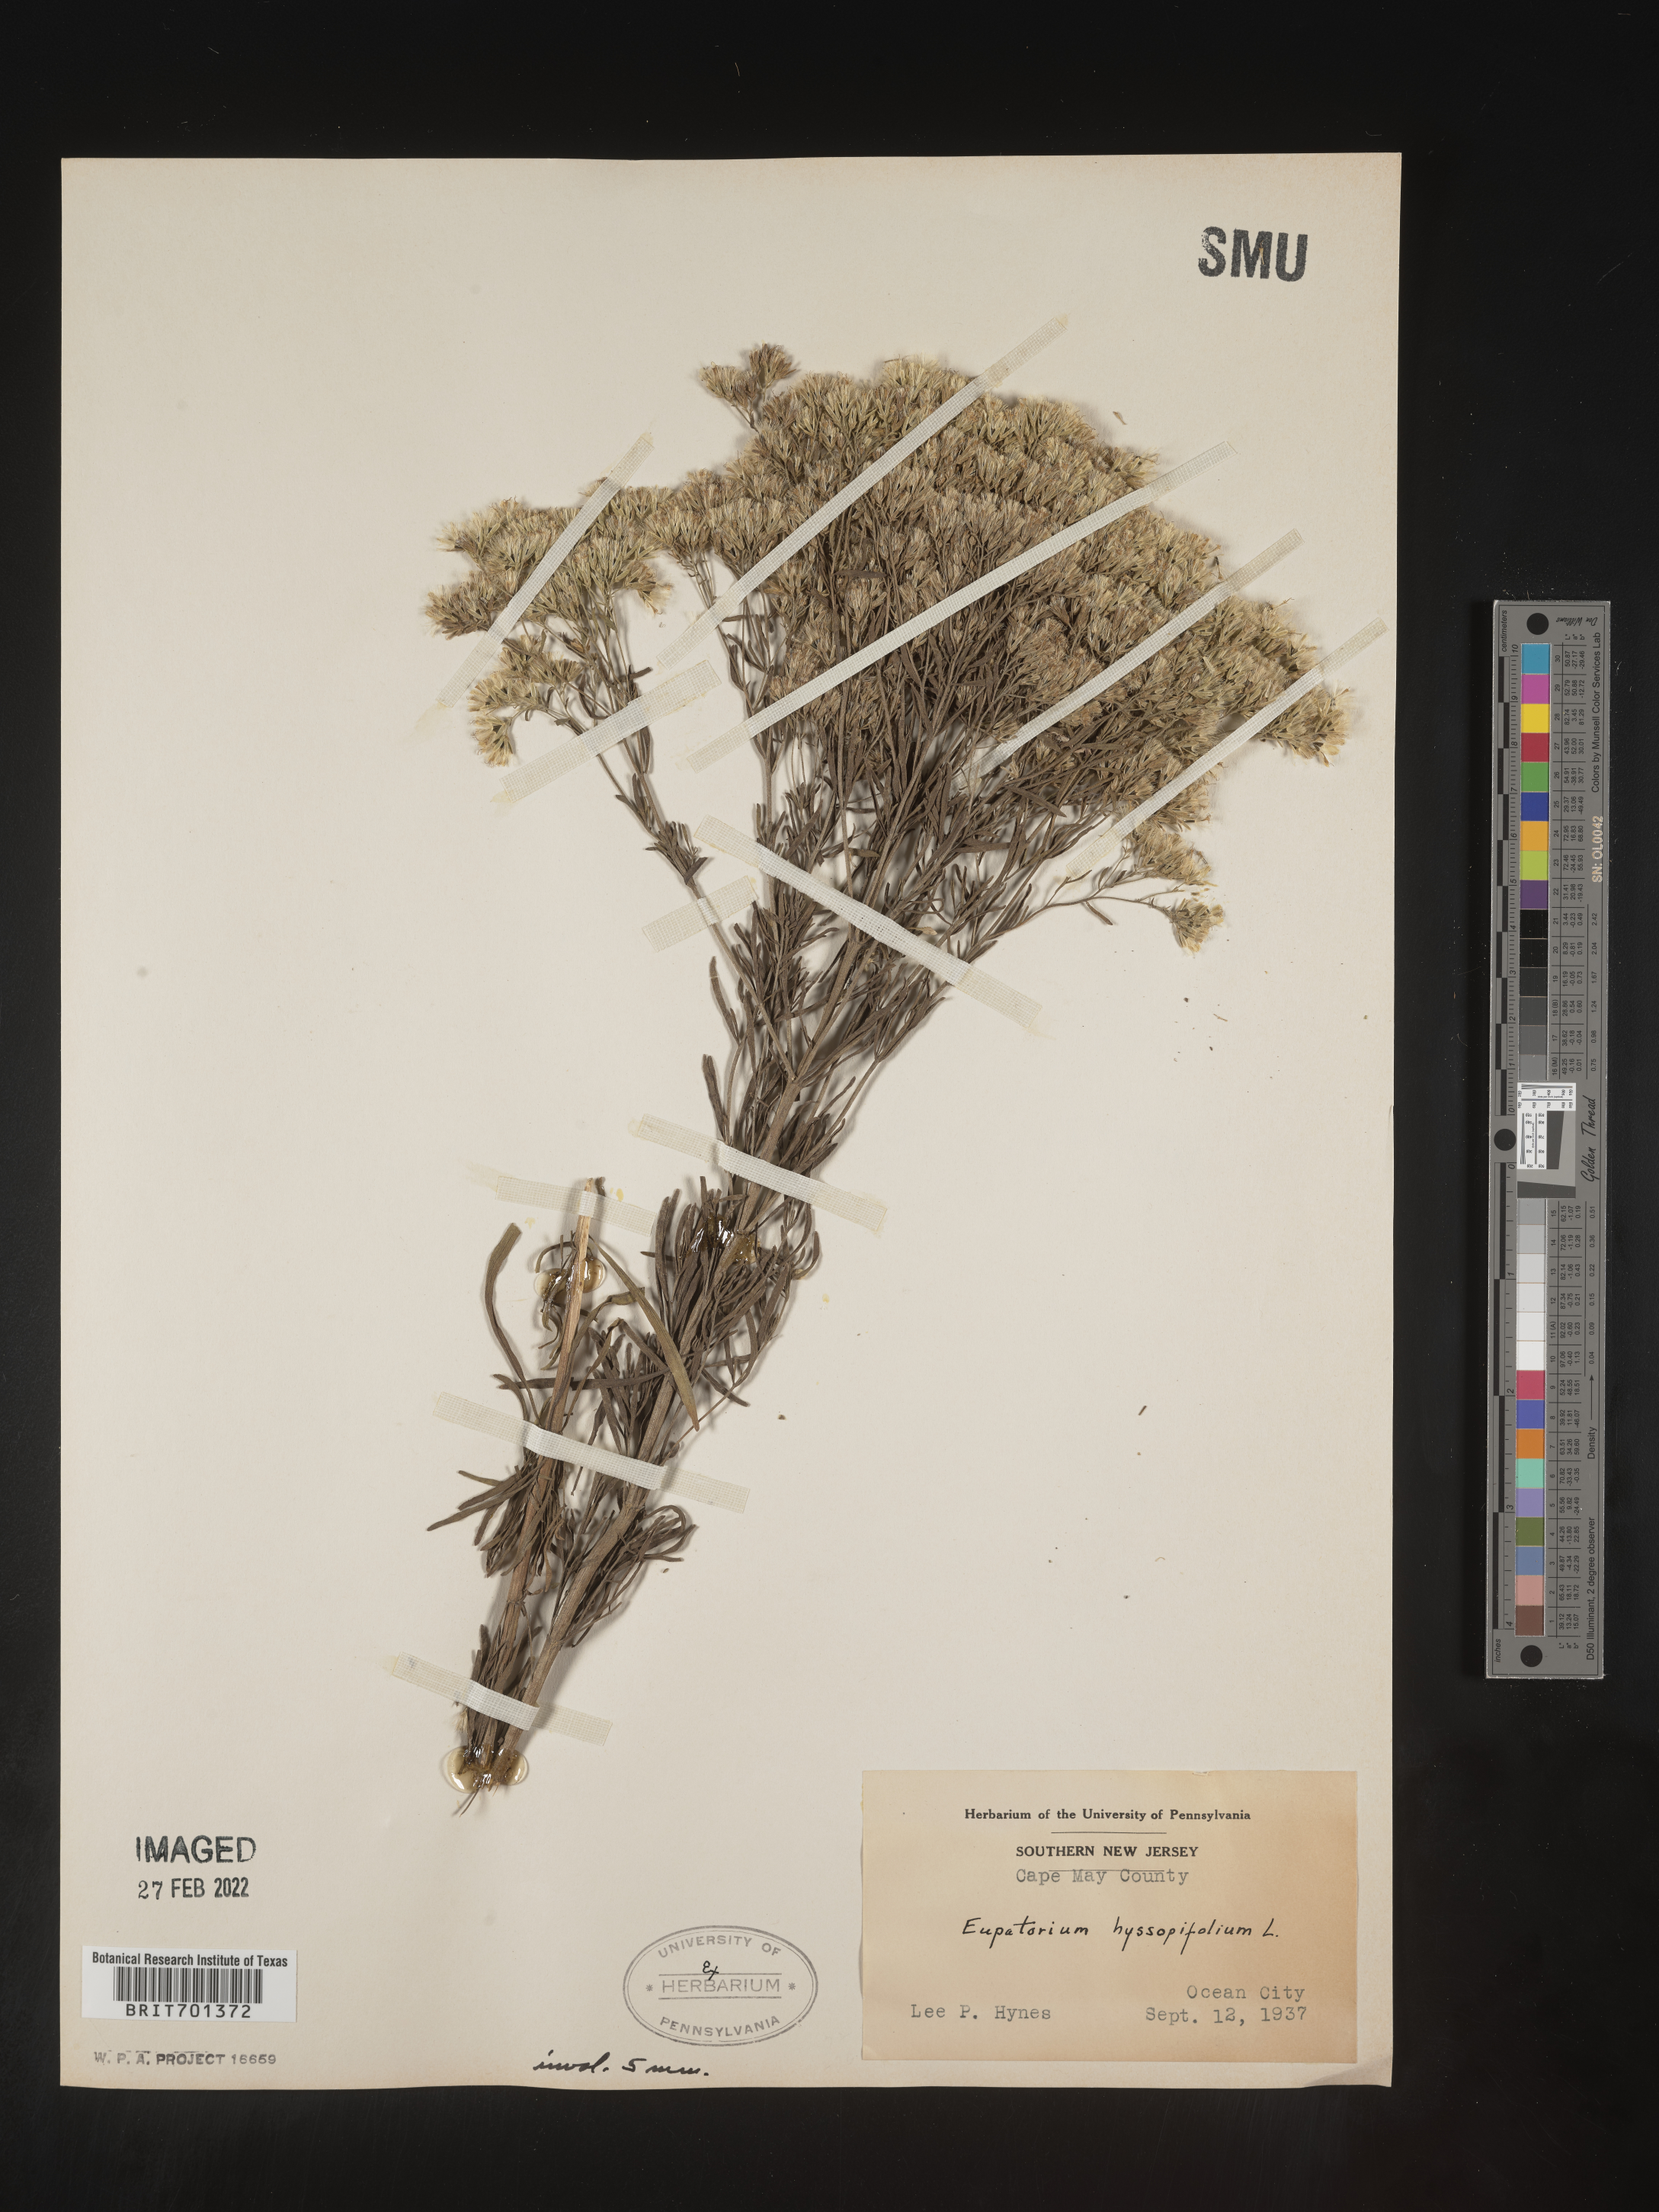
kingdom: Plantae
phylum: Tracheophyta
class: Magnoliopsida
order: Asterales
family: Asteraceae
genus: Eupatorium
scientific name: Eupatorium hyssopifolium
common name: Hyssop-leaf thoroughwort
